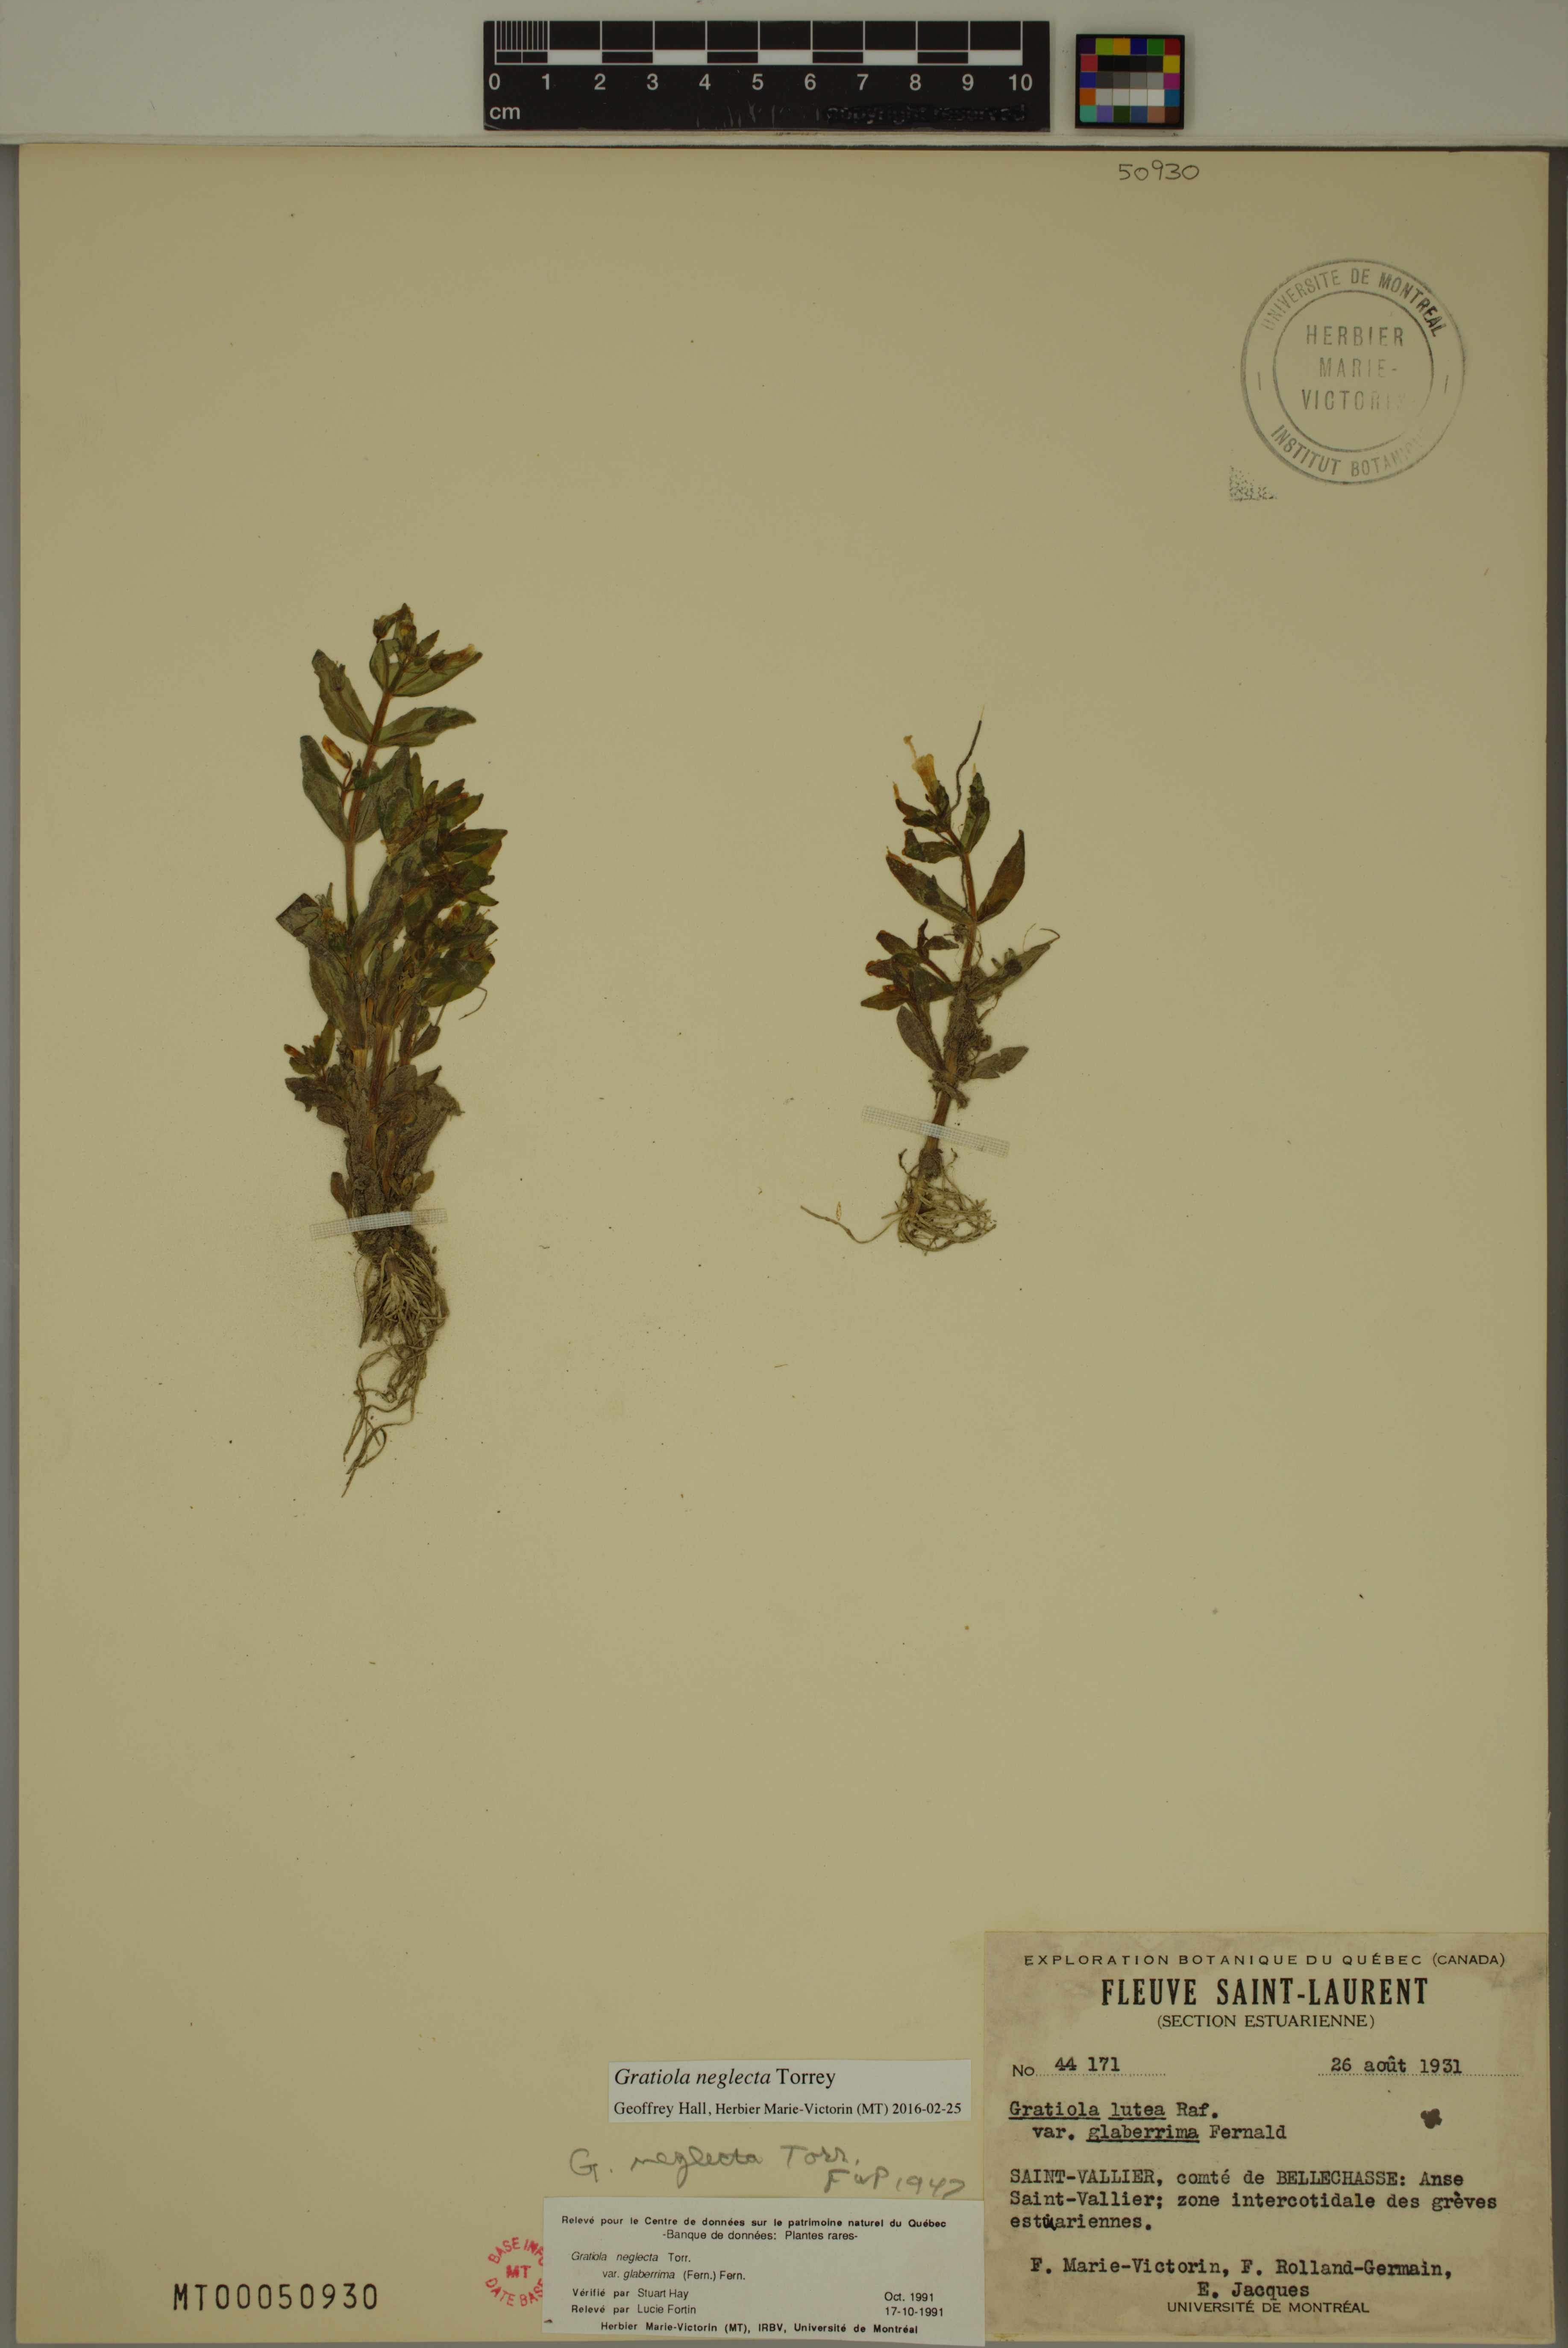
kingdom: Plantae
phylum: Tracheophyta
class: Magnoliopsida
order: Lamiales
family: Plantaginaceae
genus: Gratiola
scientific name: Gratiola neglecta
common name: American hedge-hyssop
